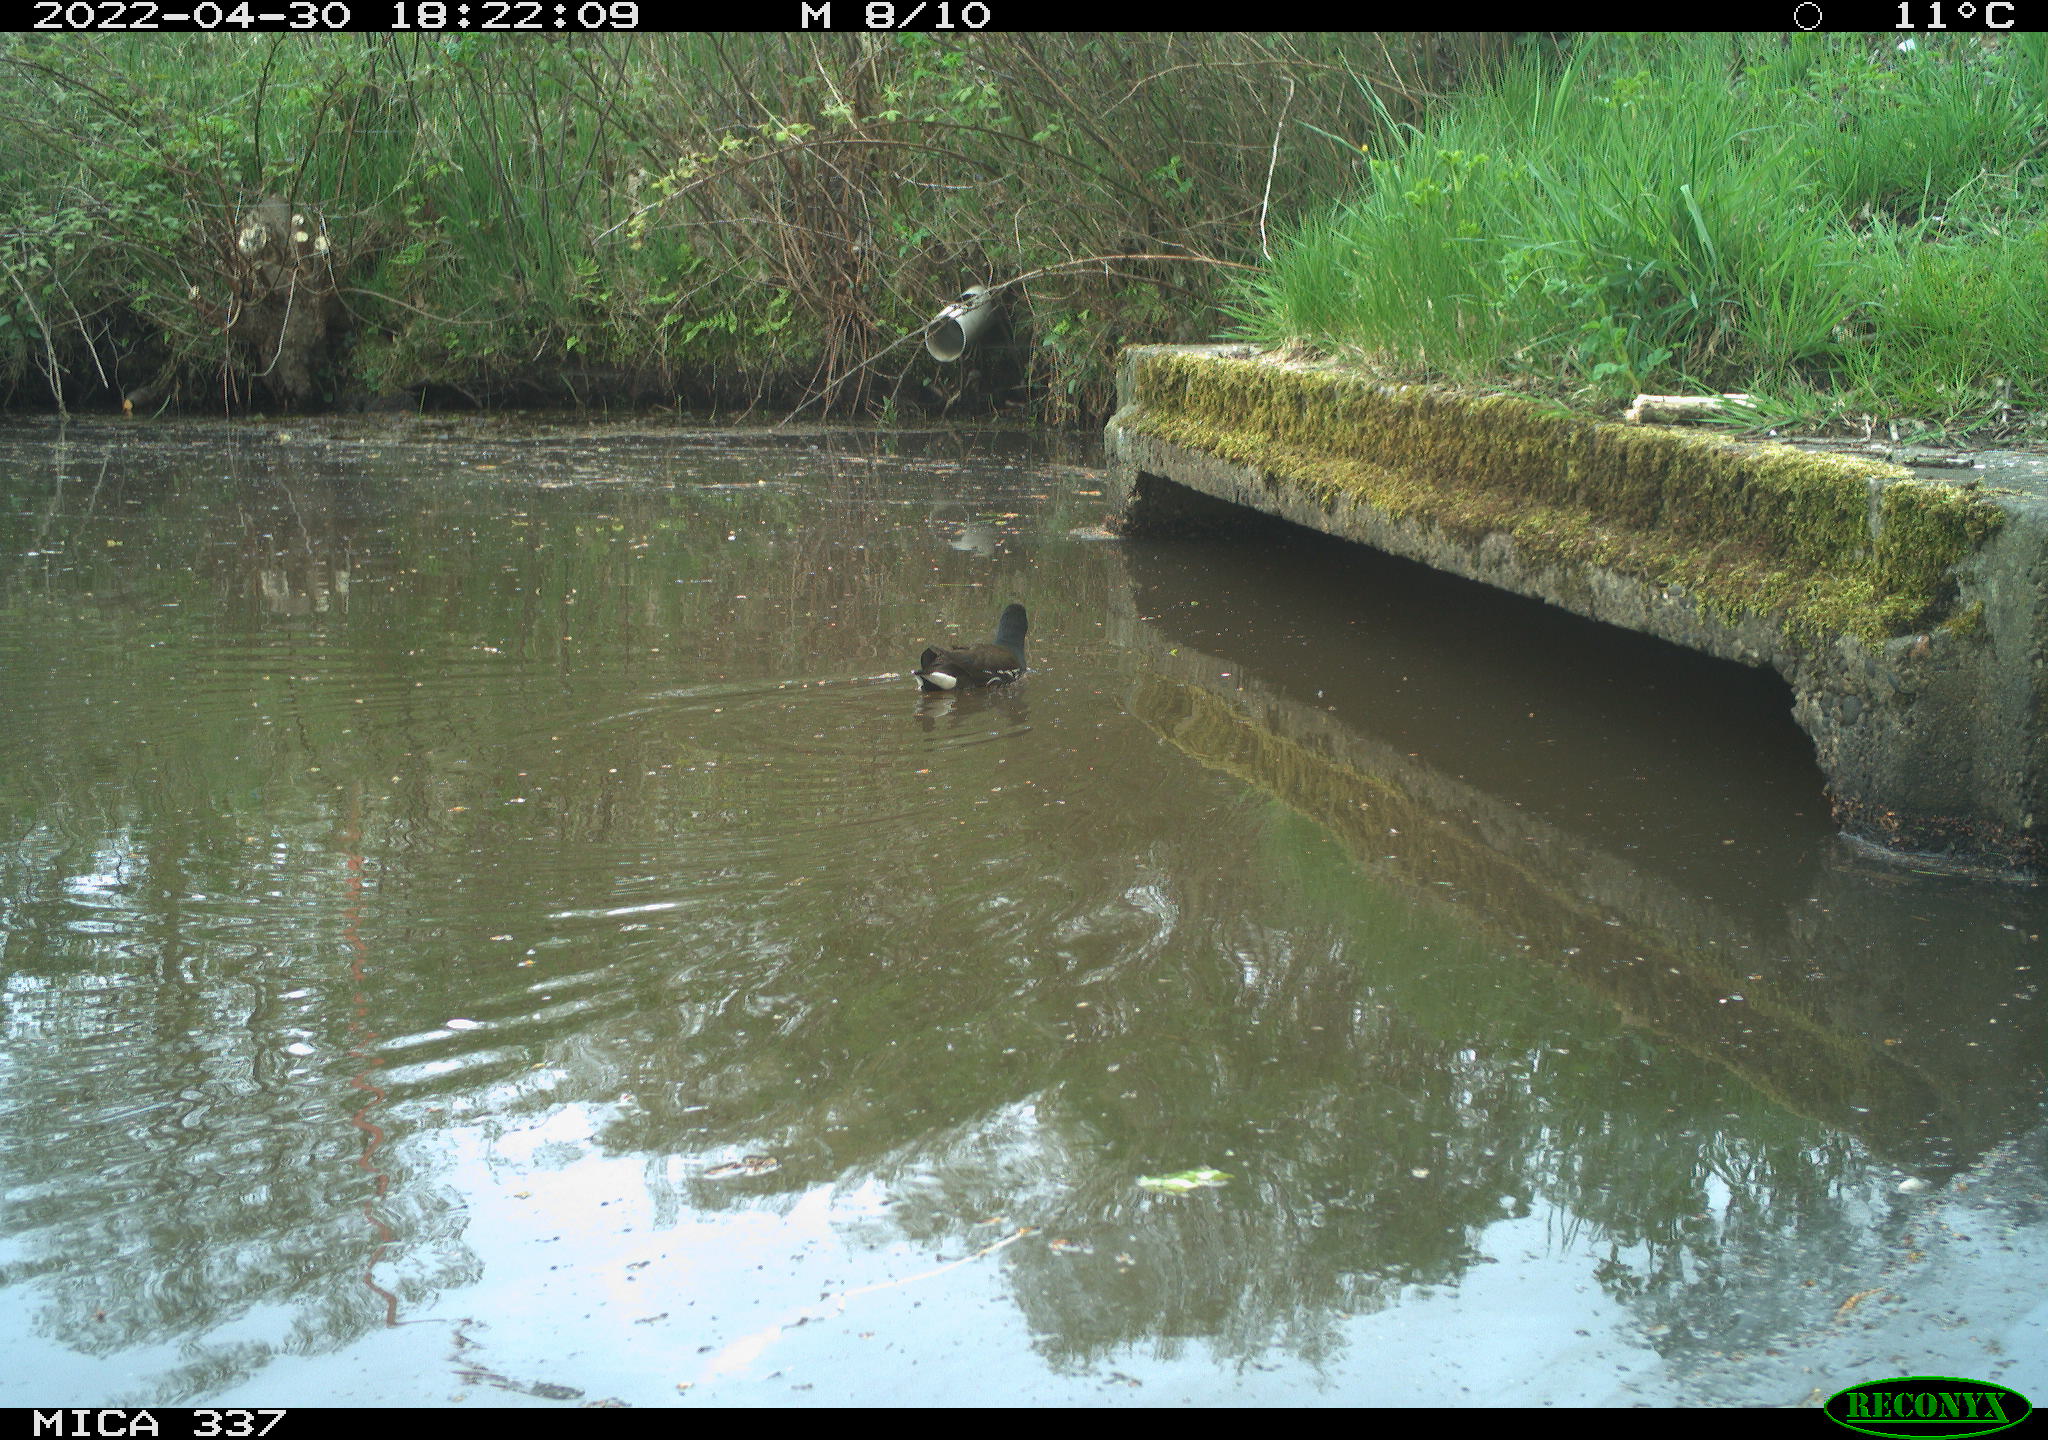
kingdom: Animalia
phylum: Chordata
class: Aves
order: Gruiformes
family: Rallidae
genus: Gallinula
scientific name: Gallinula chloropus
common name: Common moorhen
